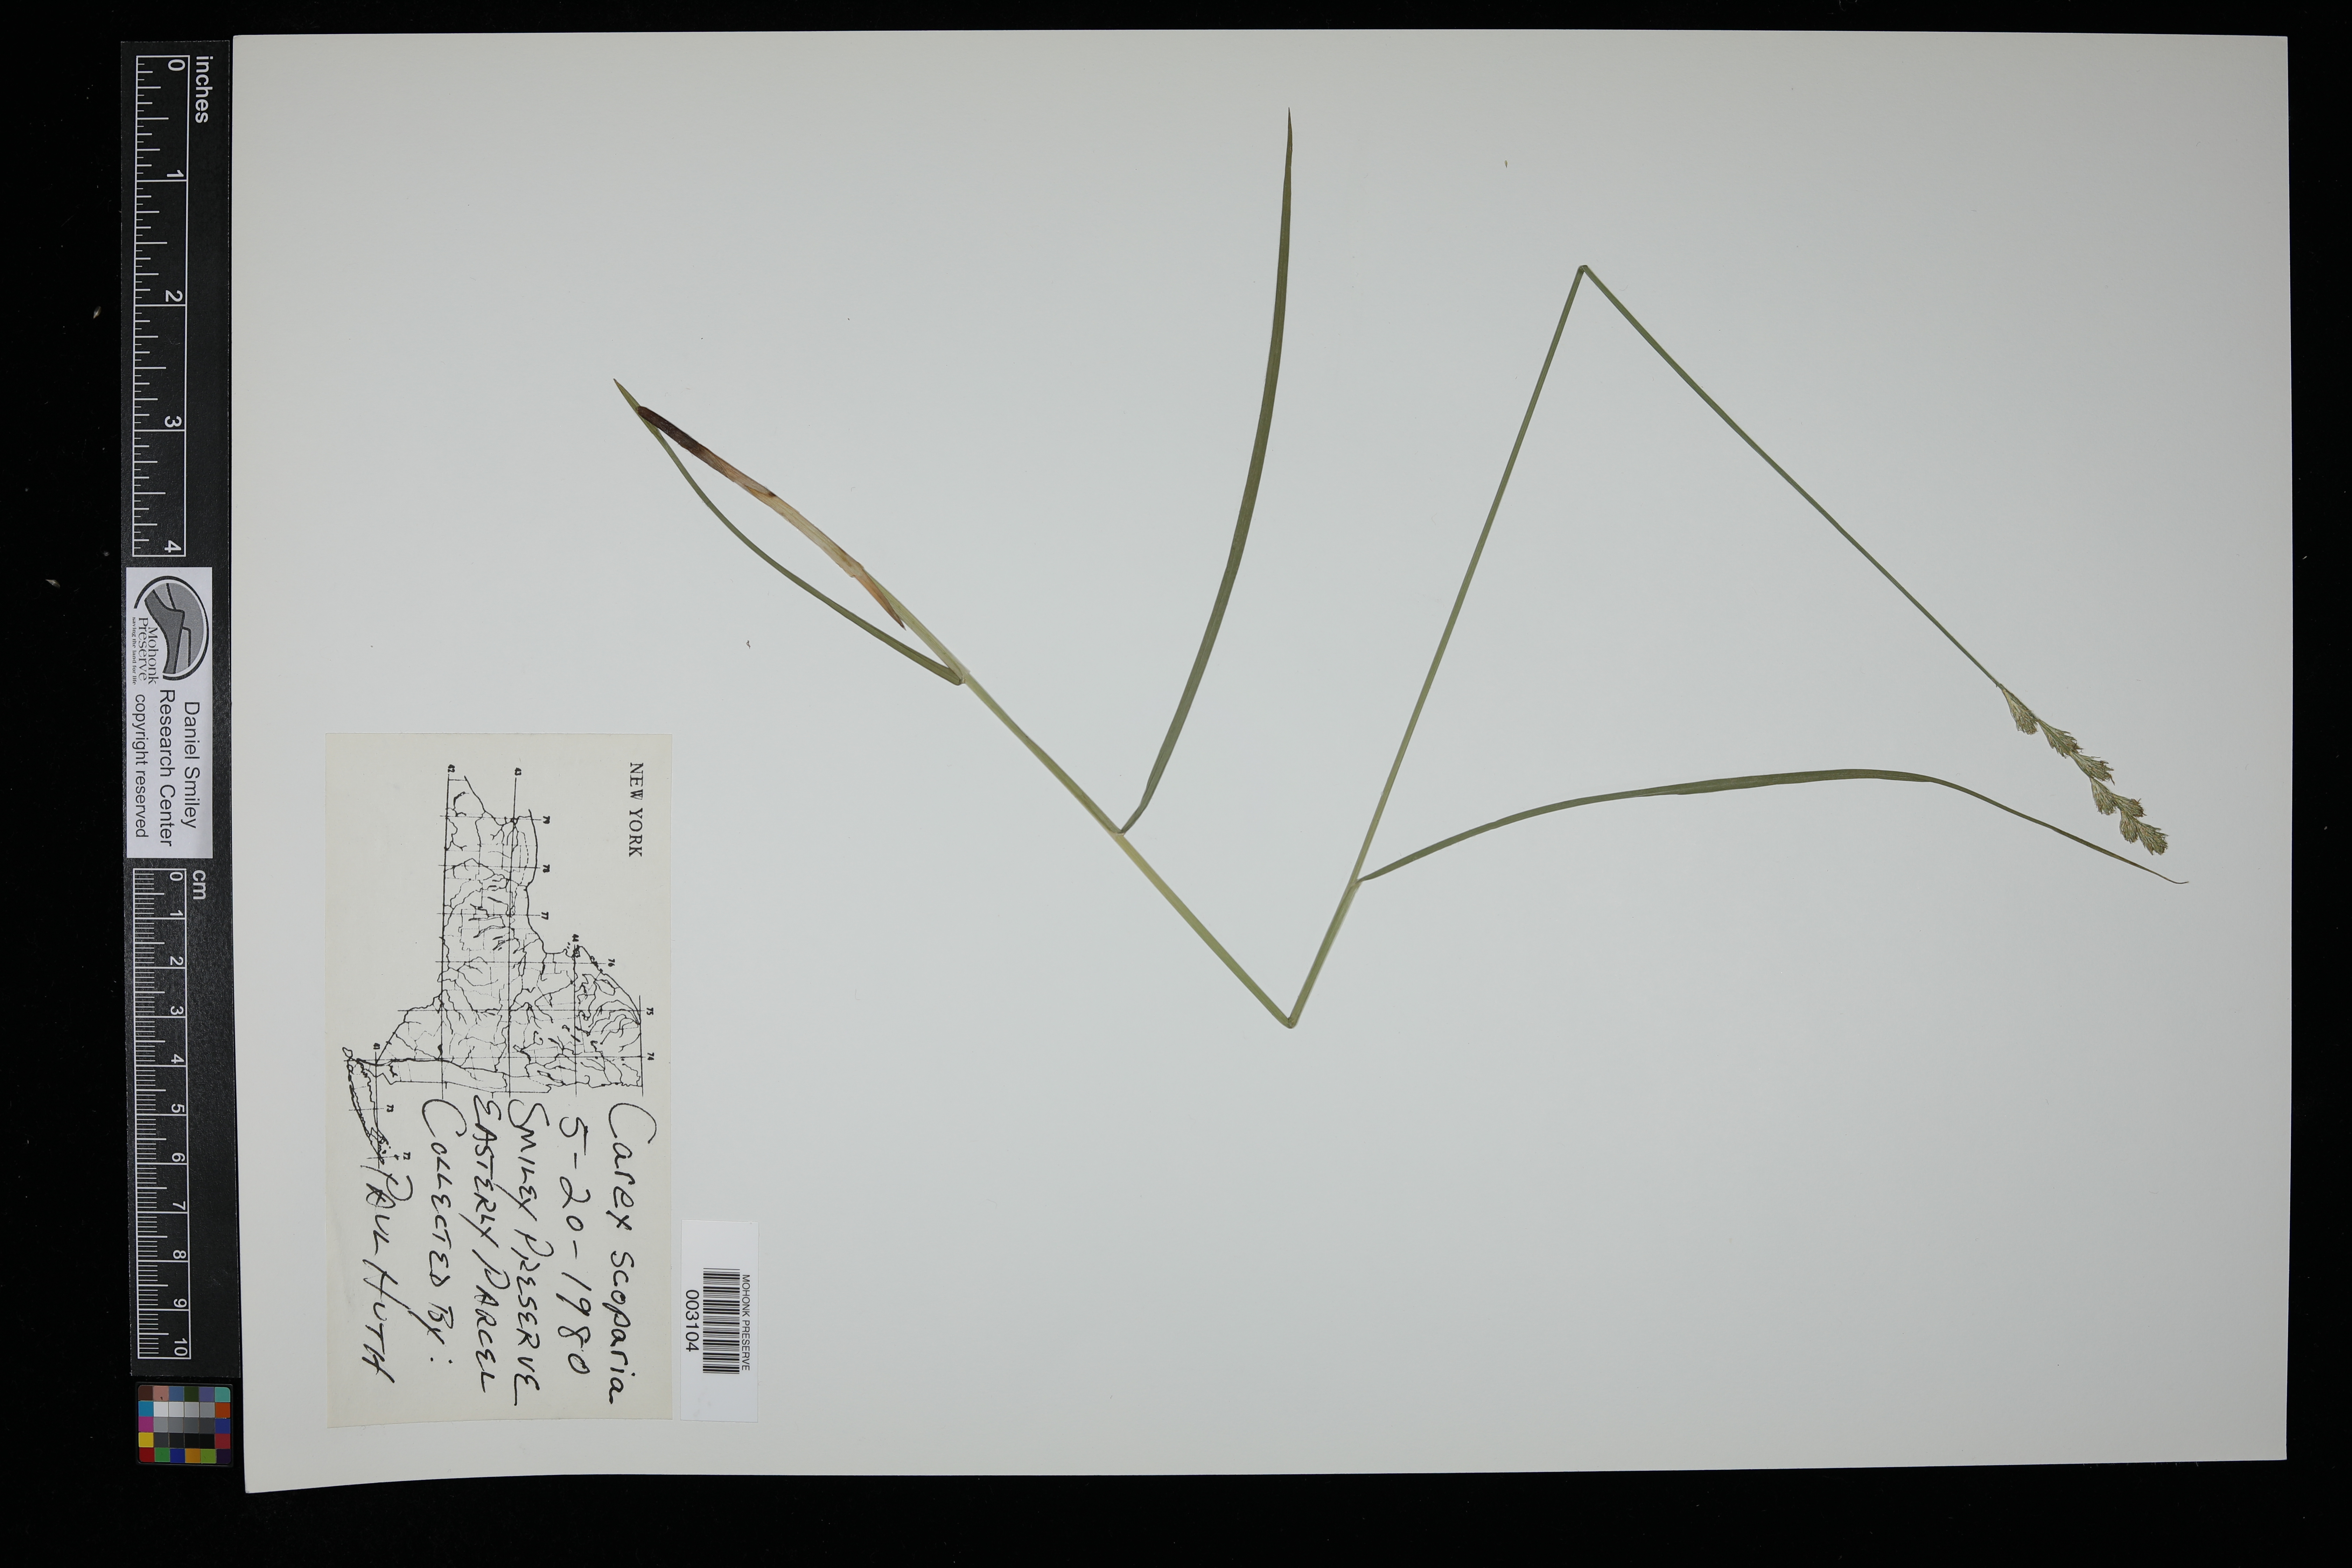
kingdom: Plantae
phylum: Tracheophyta
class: Liliopsida
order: Poales
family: Cyperaceae
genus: Carex
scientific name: Carex scoparia
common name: Broom sedge
